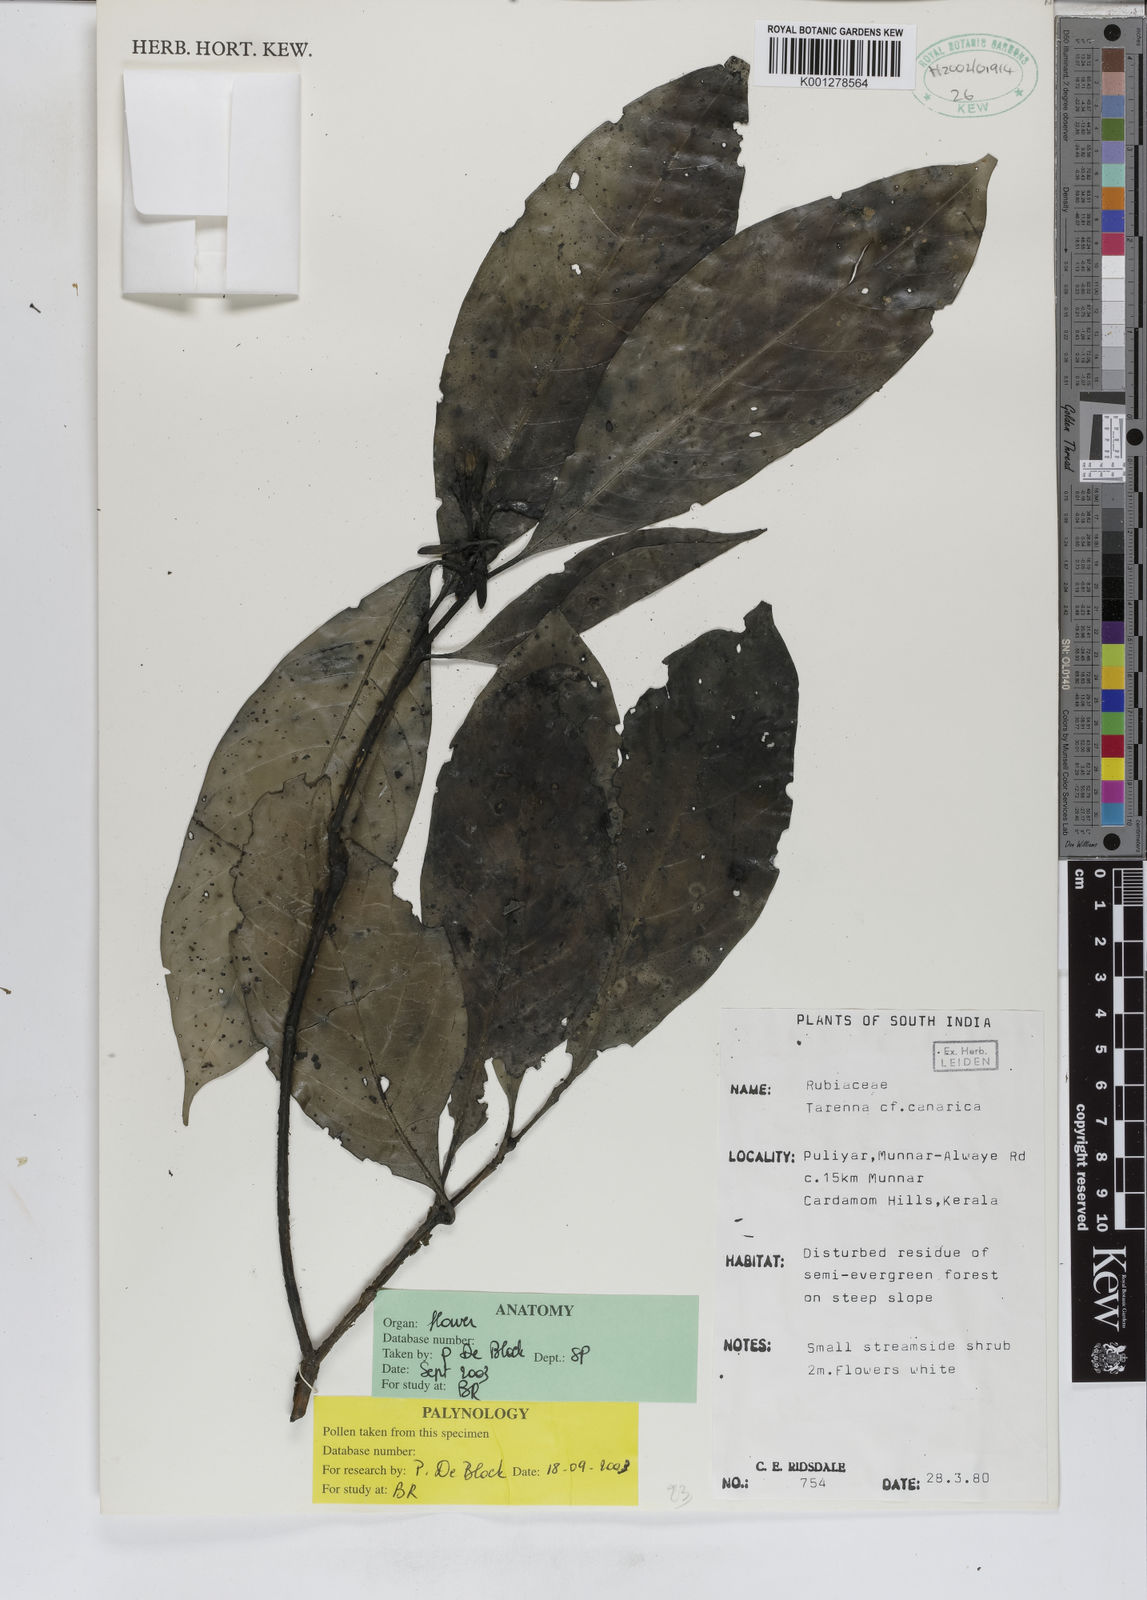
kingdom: Plantae
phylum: Tracheophyta
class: Magnoliopsida
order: Gentianales
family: Rubiaceae
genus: Tarenna
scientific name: Tarenna canarica
